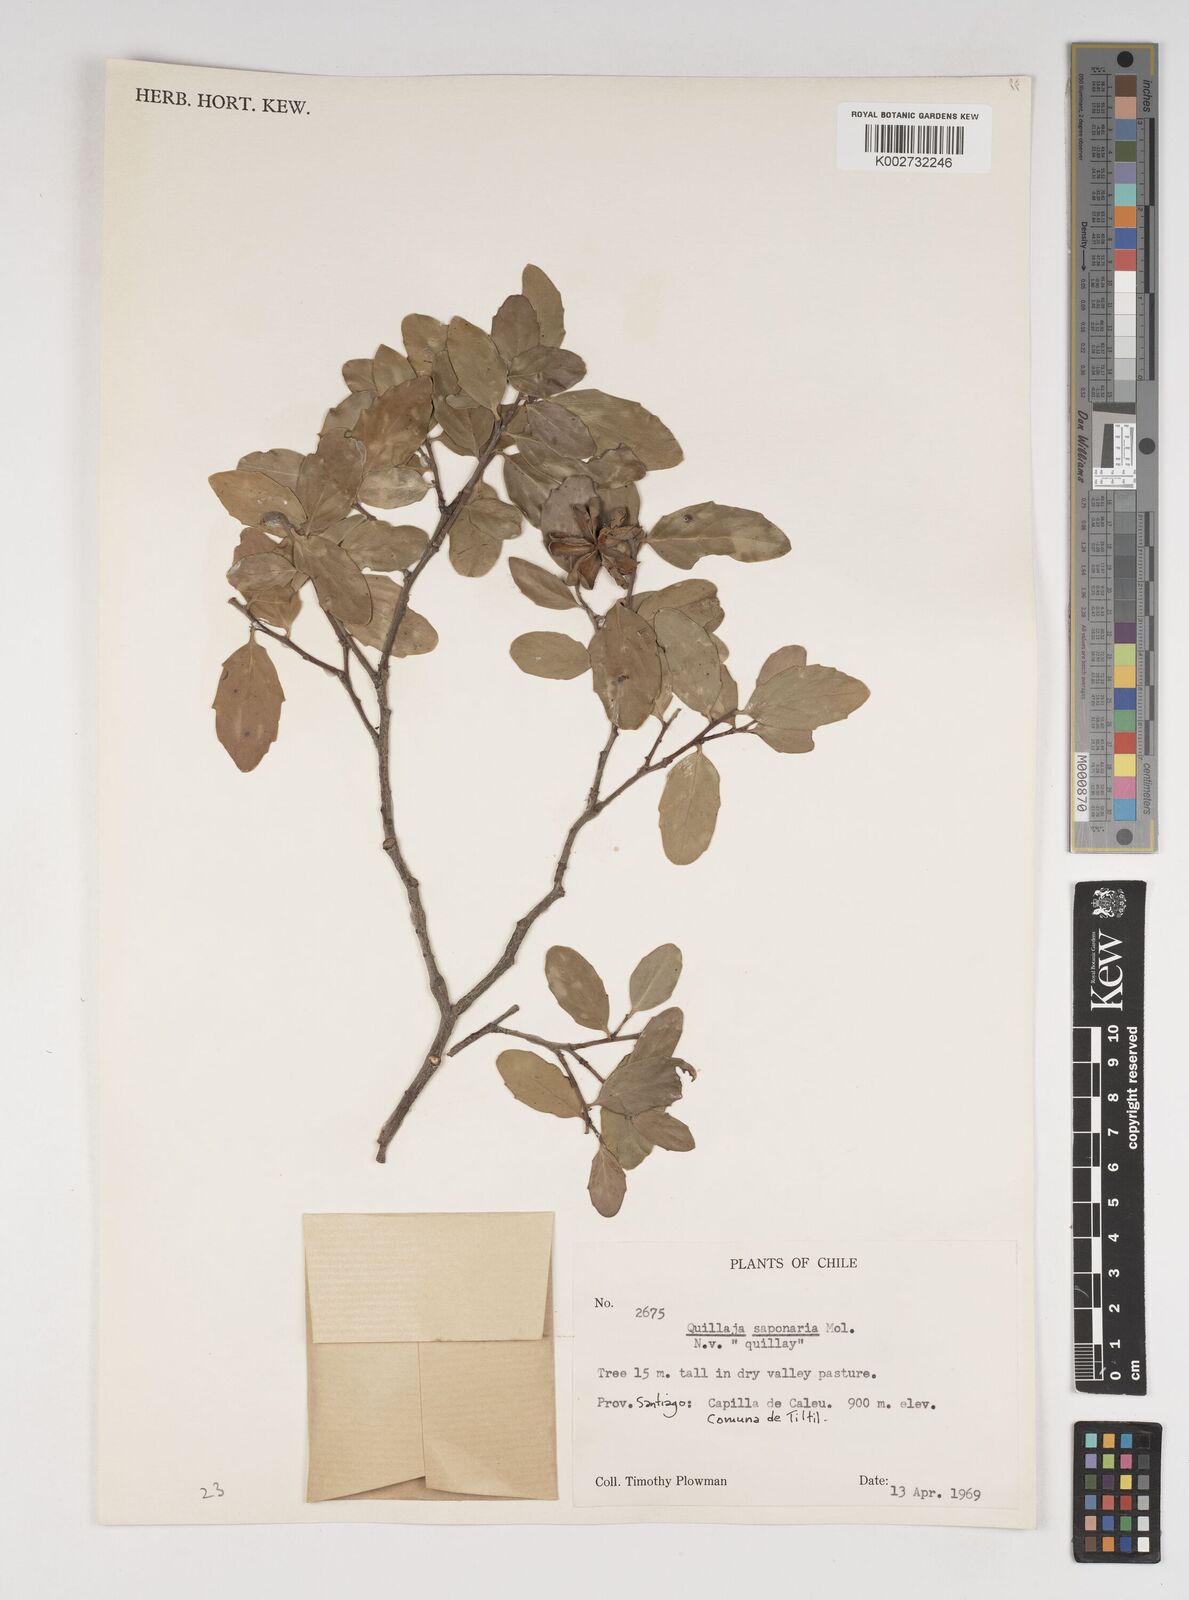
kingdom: Plantae
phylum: Tracheophyta
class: Magnoliopsida
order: Fabales
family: Quillajaceae
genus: Quillaja
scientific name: Quillaja saponaria
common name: Murillo's-bark
